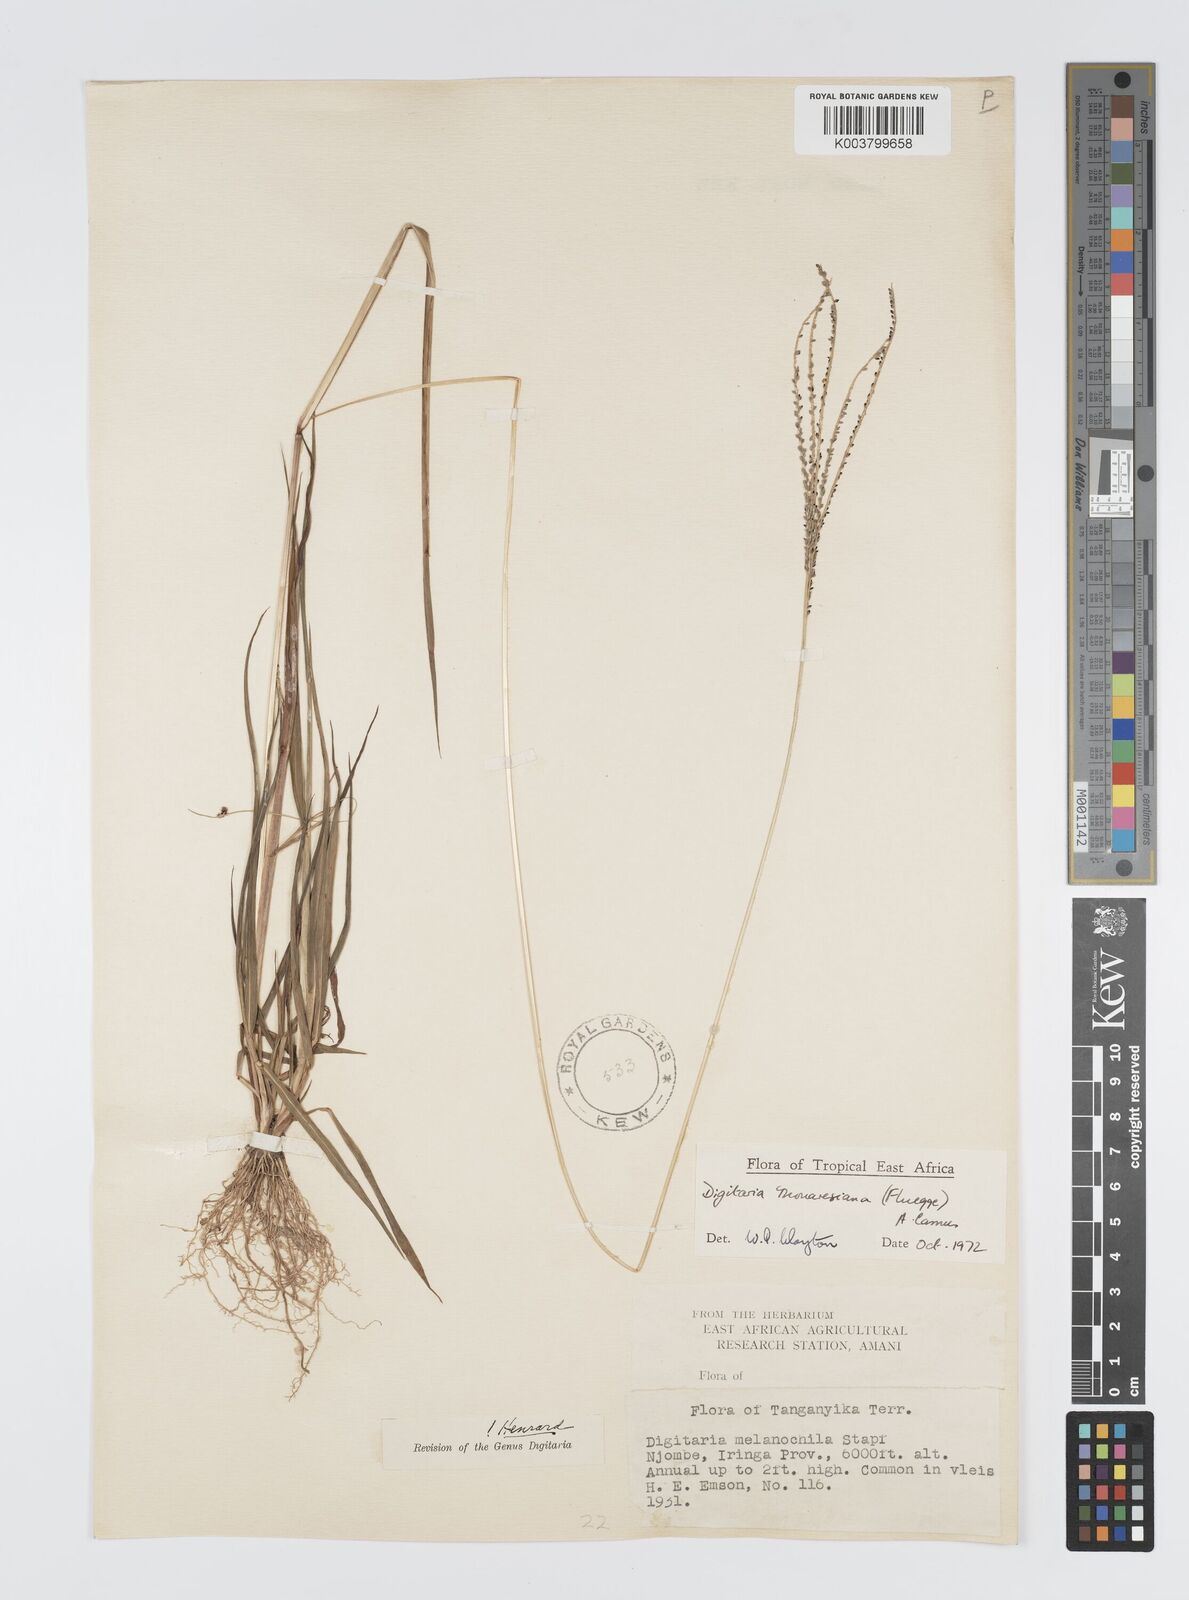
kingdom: Plantae
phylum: Tracheophyta
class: Liliopsida
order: Poales
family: Poaceae
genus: Digitaria
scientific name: Digitaria thouarsiana
